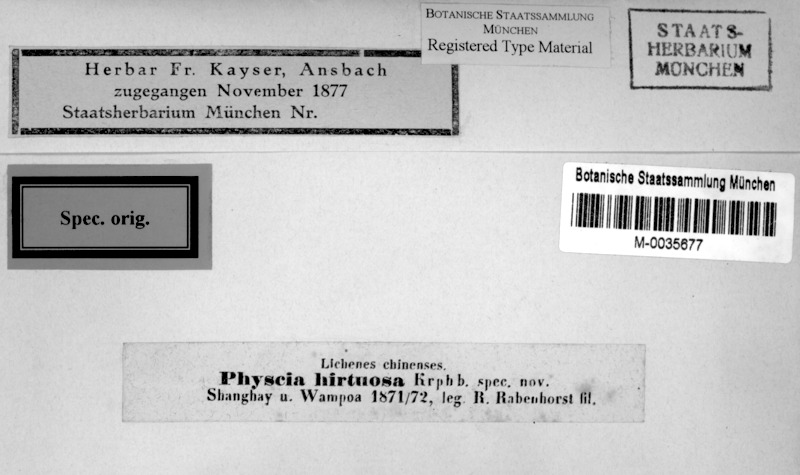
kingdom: Fungi
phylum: Ascomycota
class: Lecanoromycetes
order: Caliciales
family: Physciaceae
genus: Phaeophyscia
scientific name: Phaeophyscia hirtuosa
